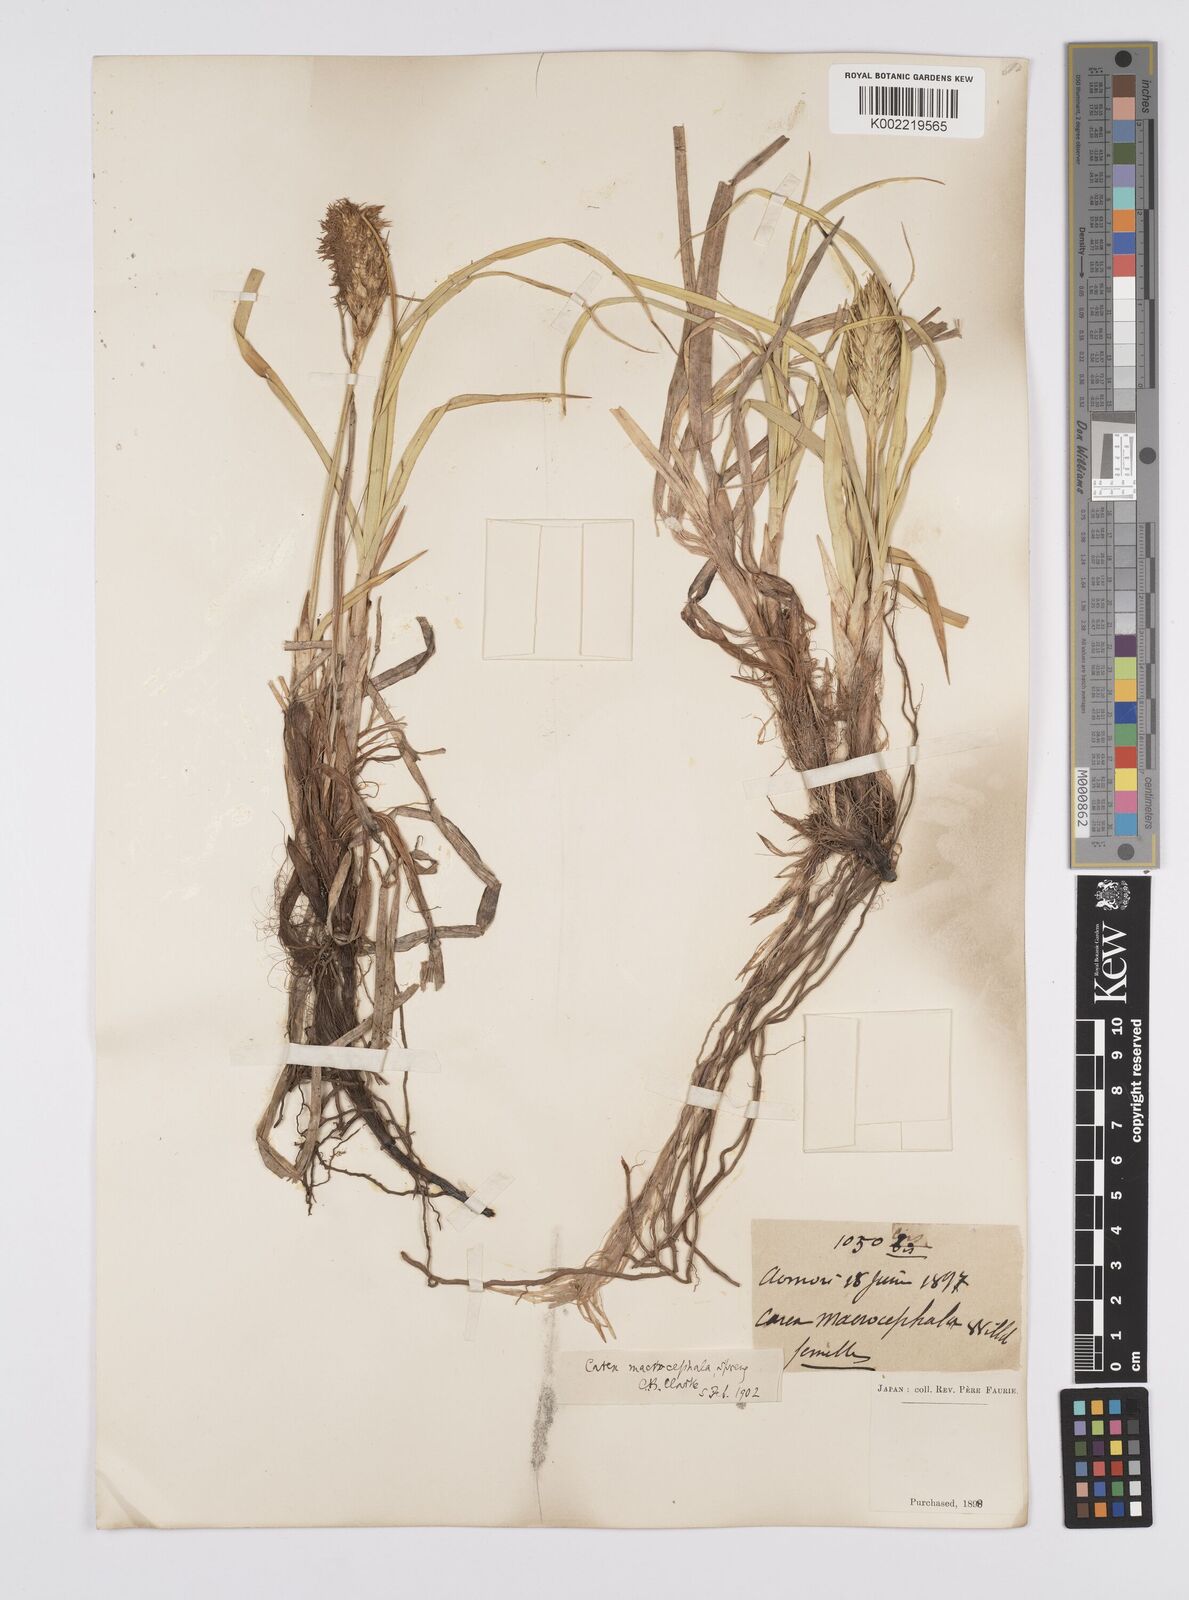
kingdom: Plantae
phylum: Tracheophyta
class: Liliopsida
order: Poales
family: Cyperaceae
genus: Carex
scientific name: Carex macrocephala
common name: Large-head sedge
